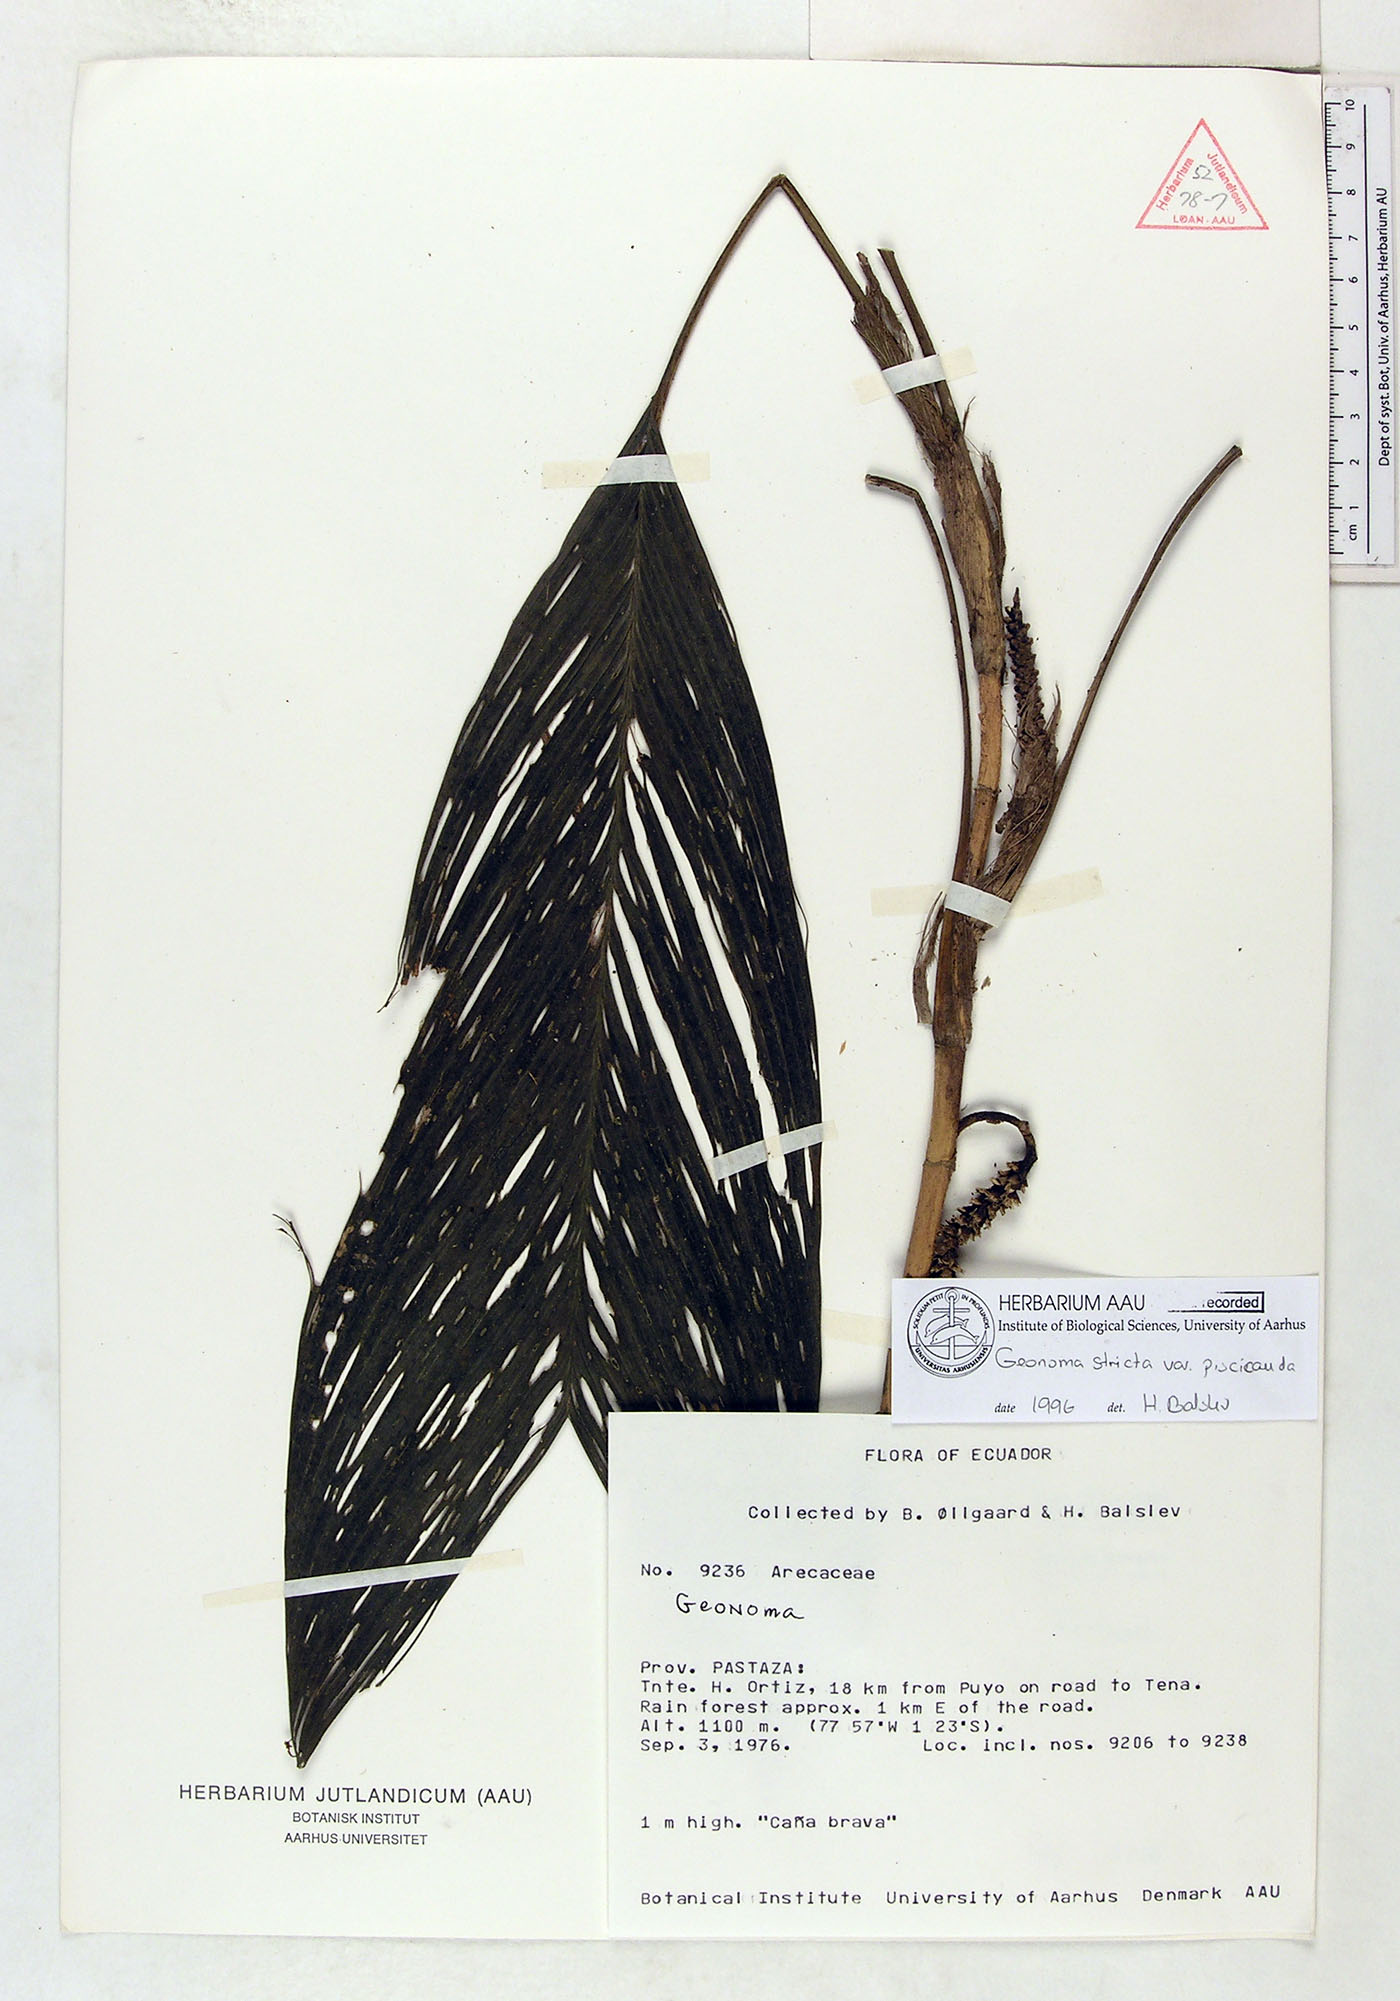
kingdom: Plantae
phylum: Tracheophyta
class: Liliopsida
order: Arecales
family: Arecaceae
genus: Geonoma
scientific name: Geonoma stricta
